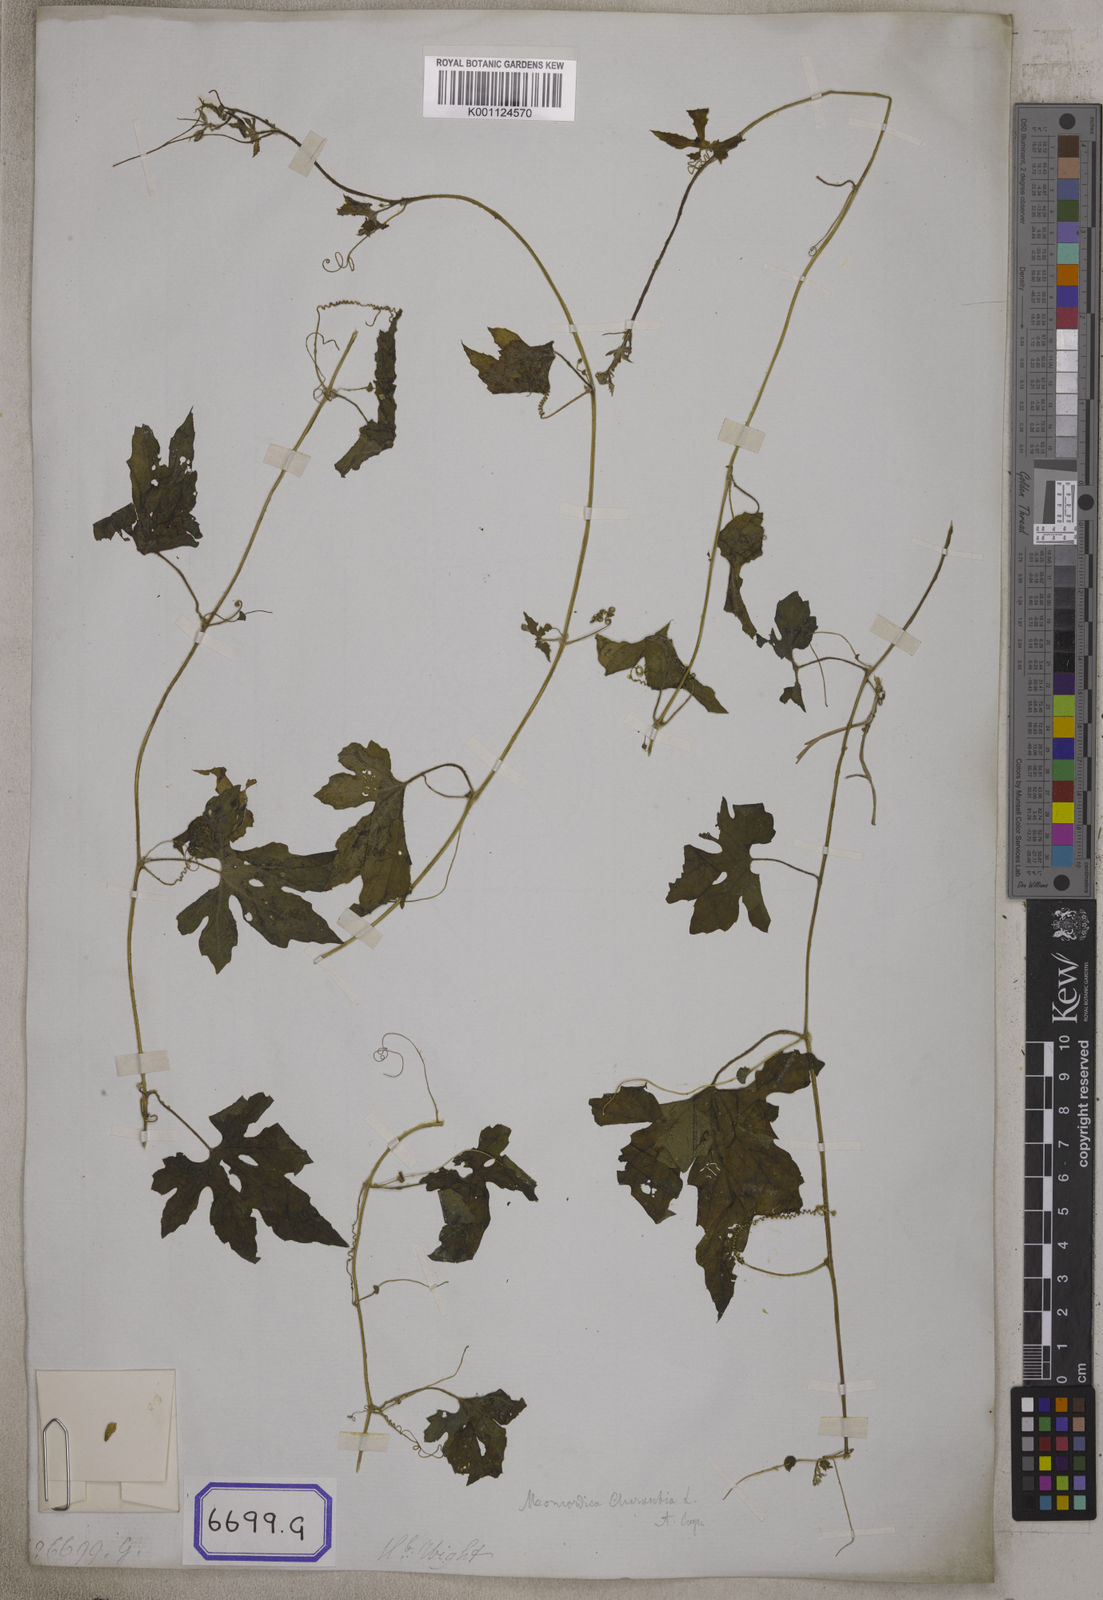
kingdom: Plantae
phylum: Tracheophyta
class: Magnoliopsida
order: Cucurbitales
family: Cucurbitaceae
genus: Diplocyclos
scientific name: Diplocyclos palmatus
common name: Striped-cucumber
